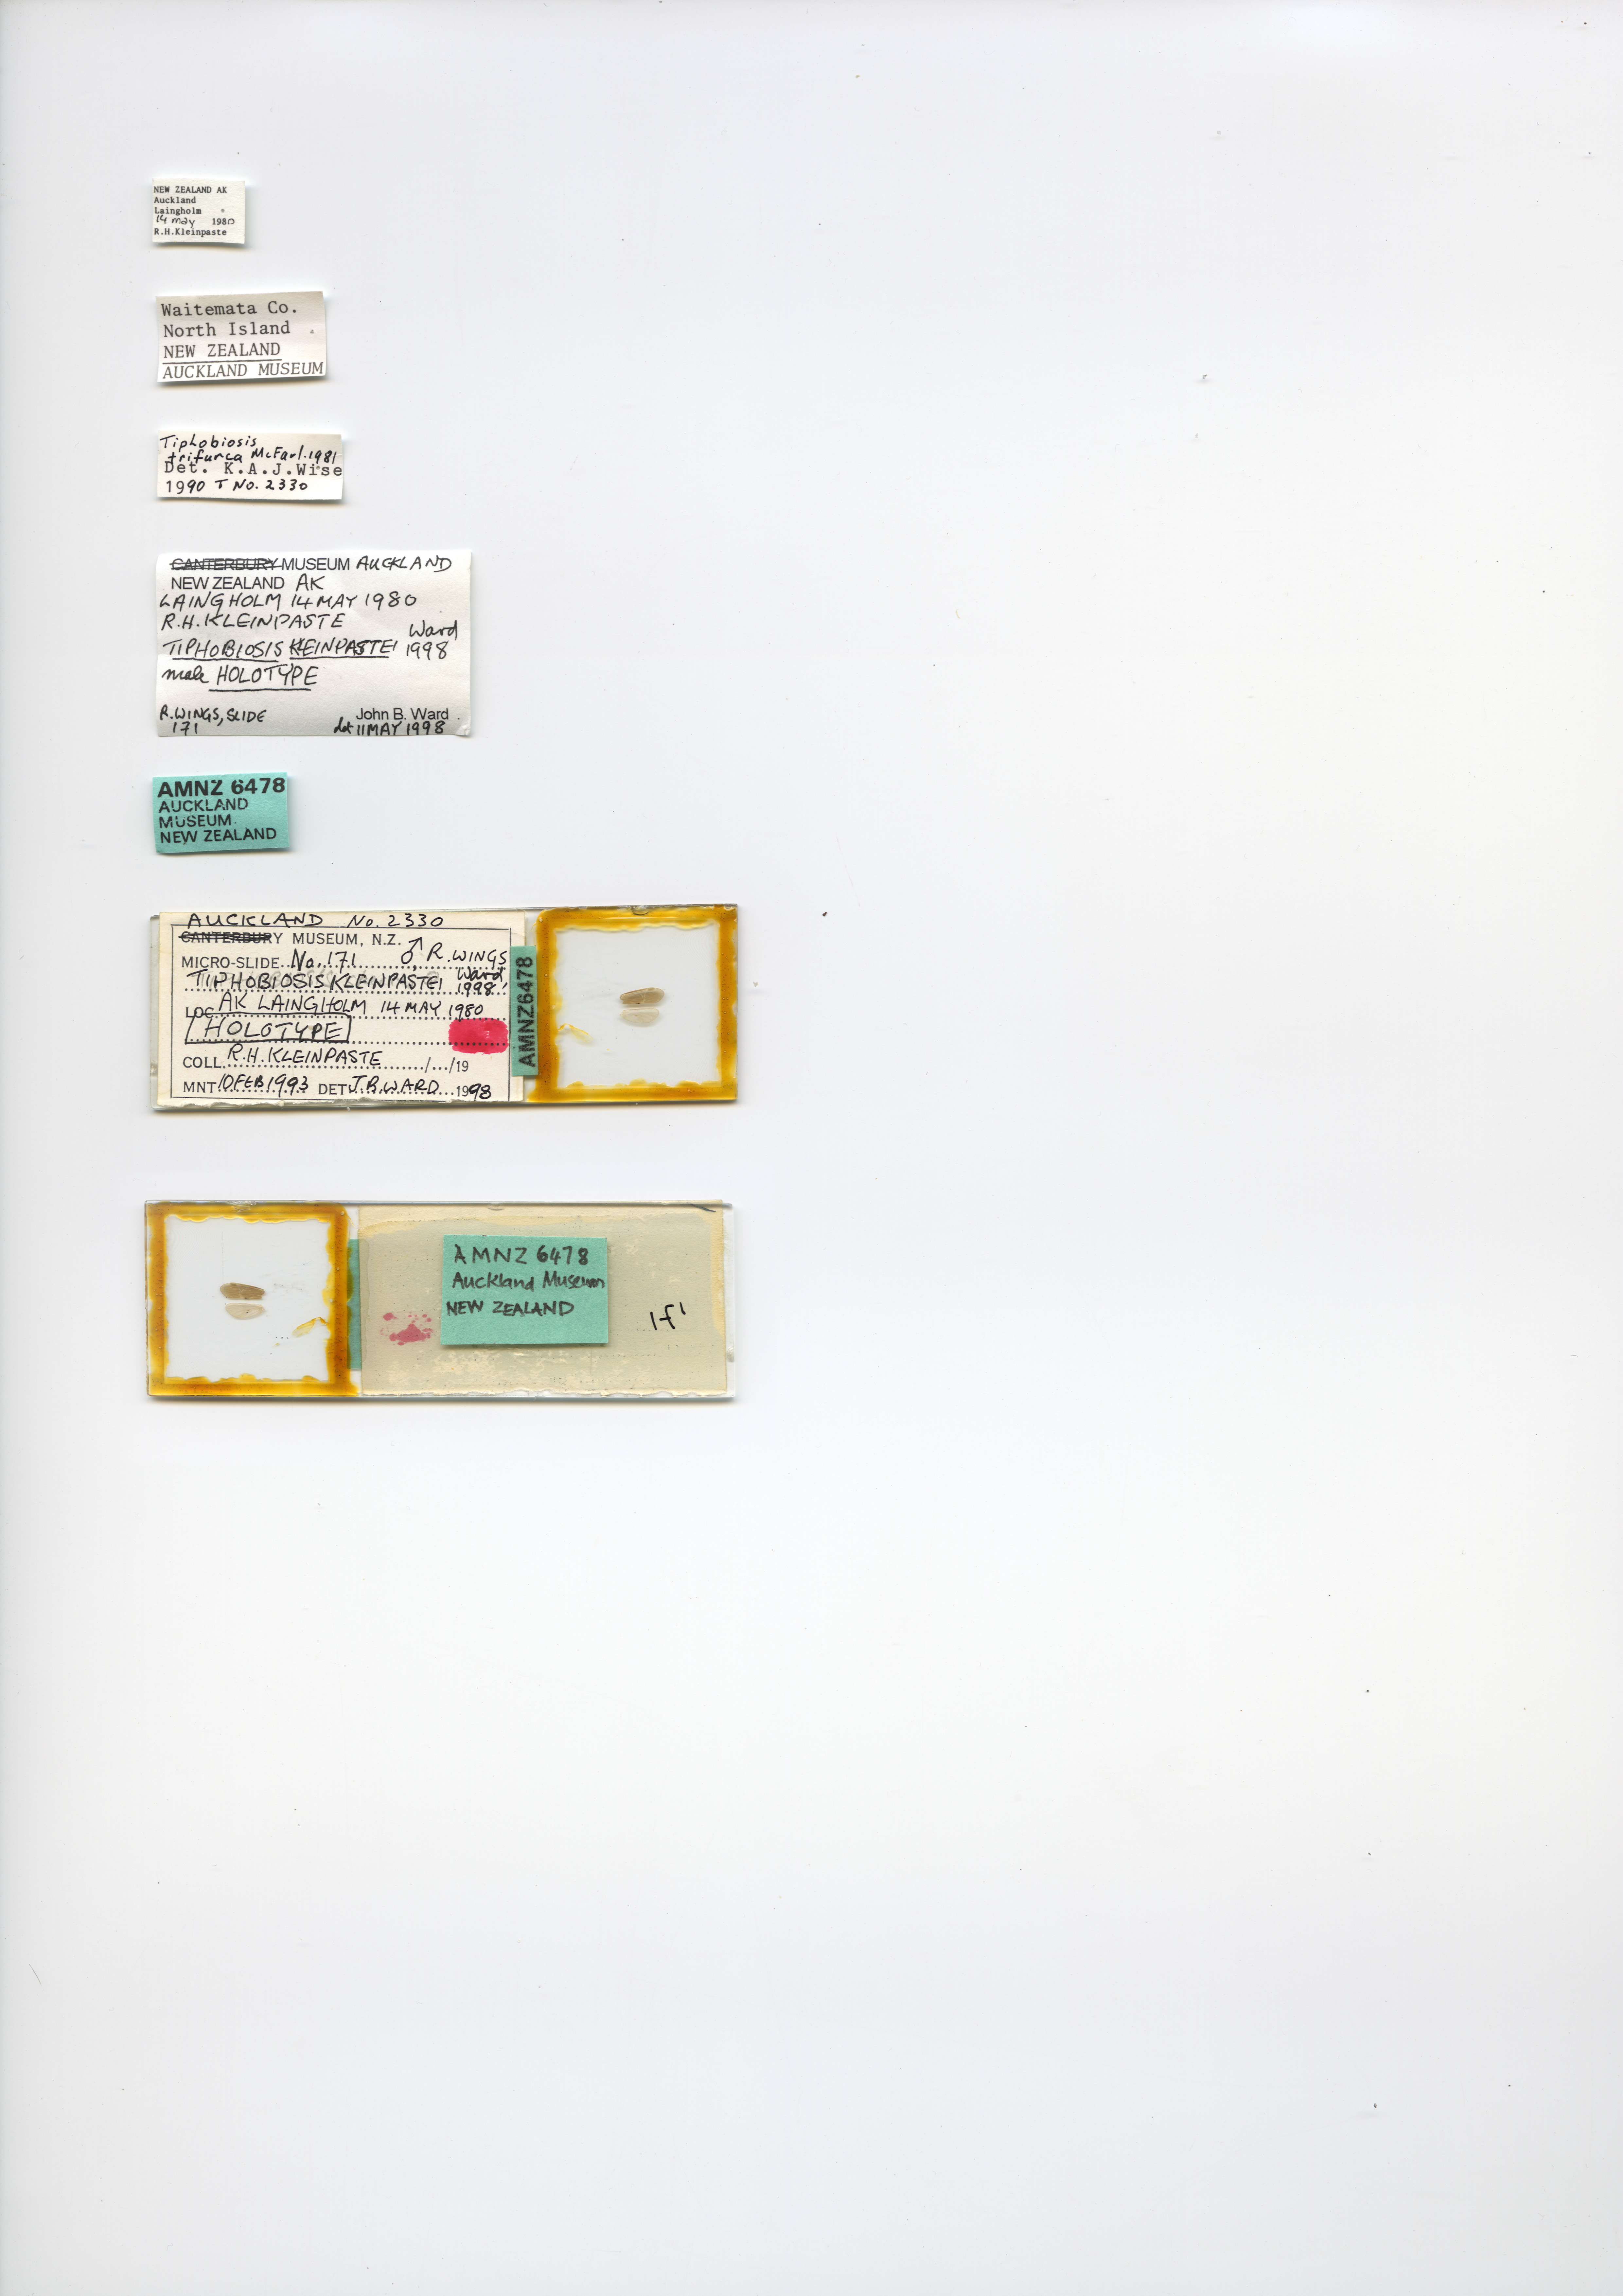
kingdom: Animalia
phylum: Arthropoda
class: Insecta
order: Trichoptera
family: Hydrobiosidae
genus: Tiphobiosis
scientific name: Tiphobiosis kleinpastei
